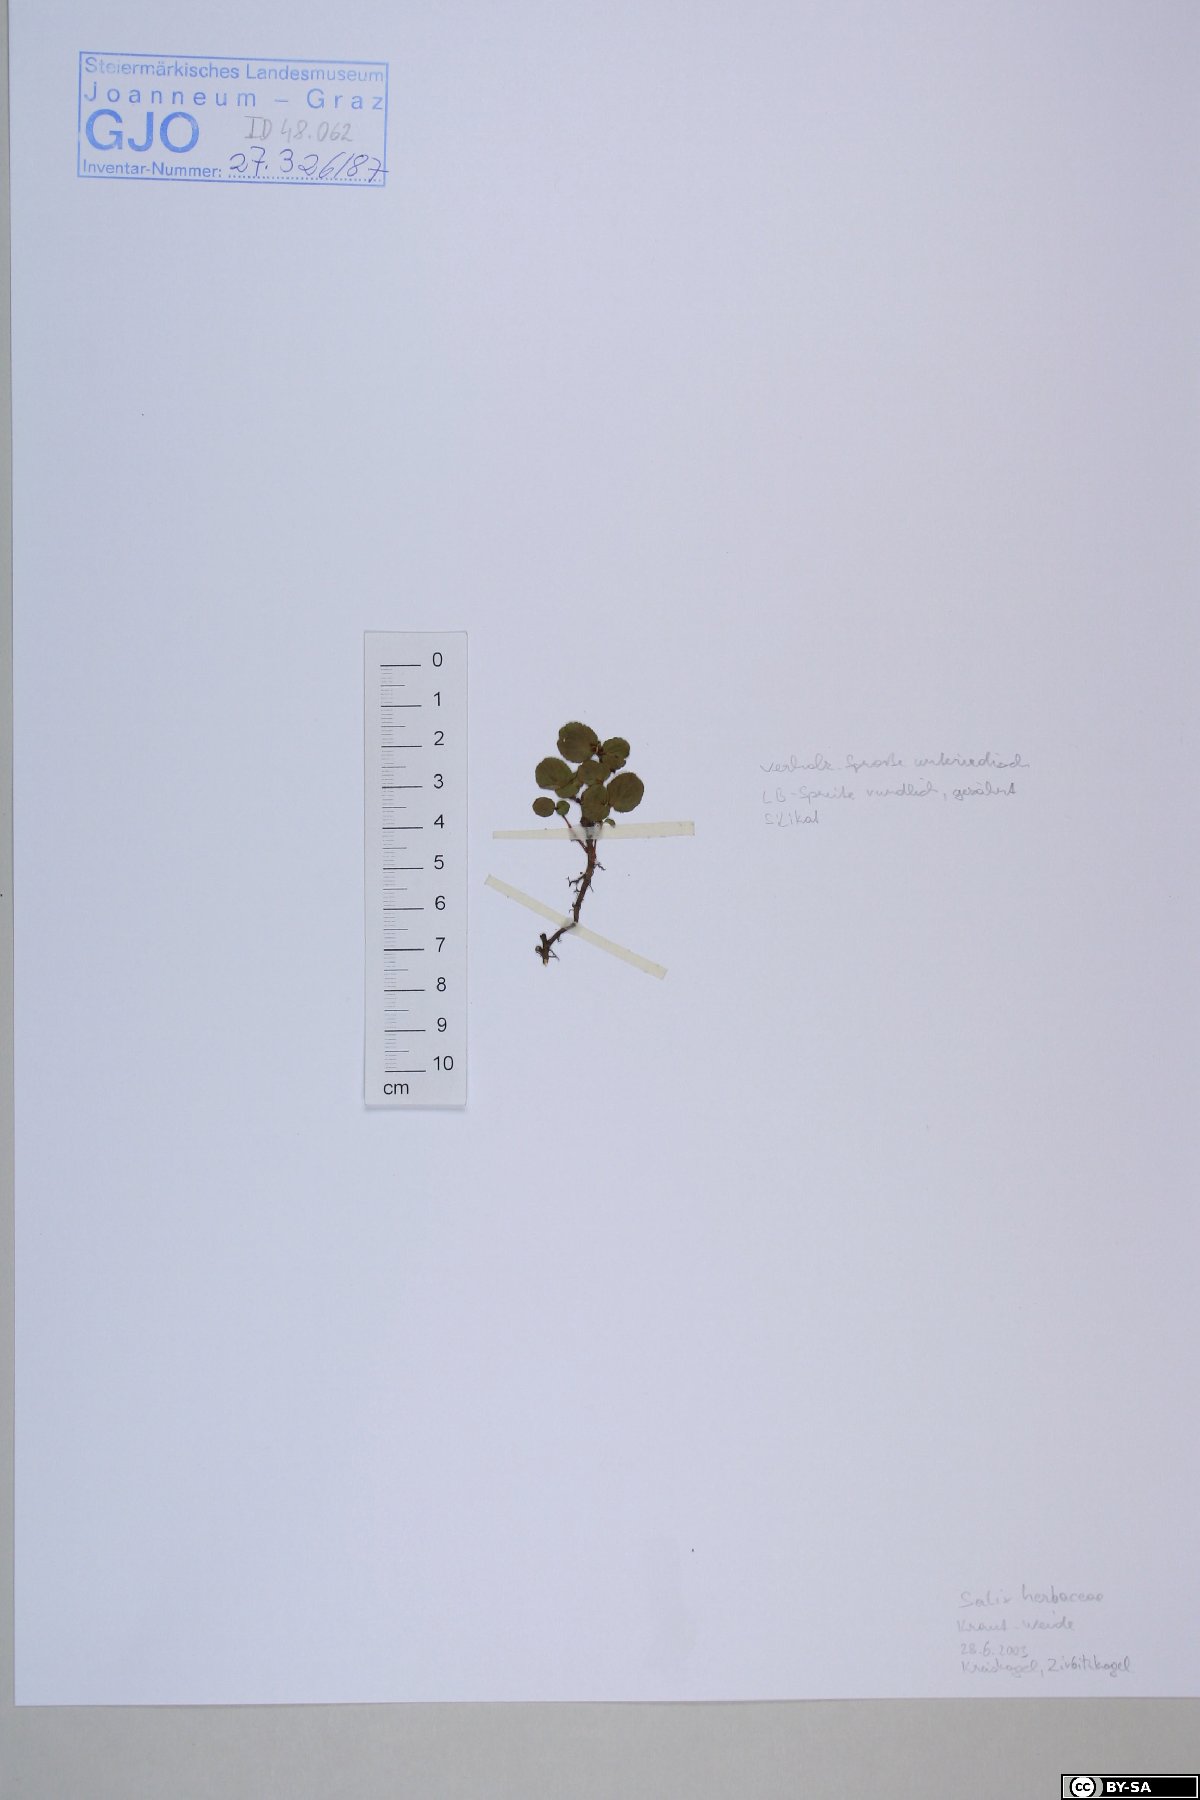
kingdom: Plantae
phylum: Tracheophyta
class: Magnoliopsida
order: Malpighiales
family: Salicaceae
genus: Salix
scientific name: Salix herbacea
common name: Dwarf willow
